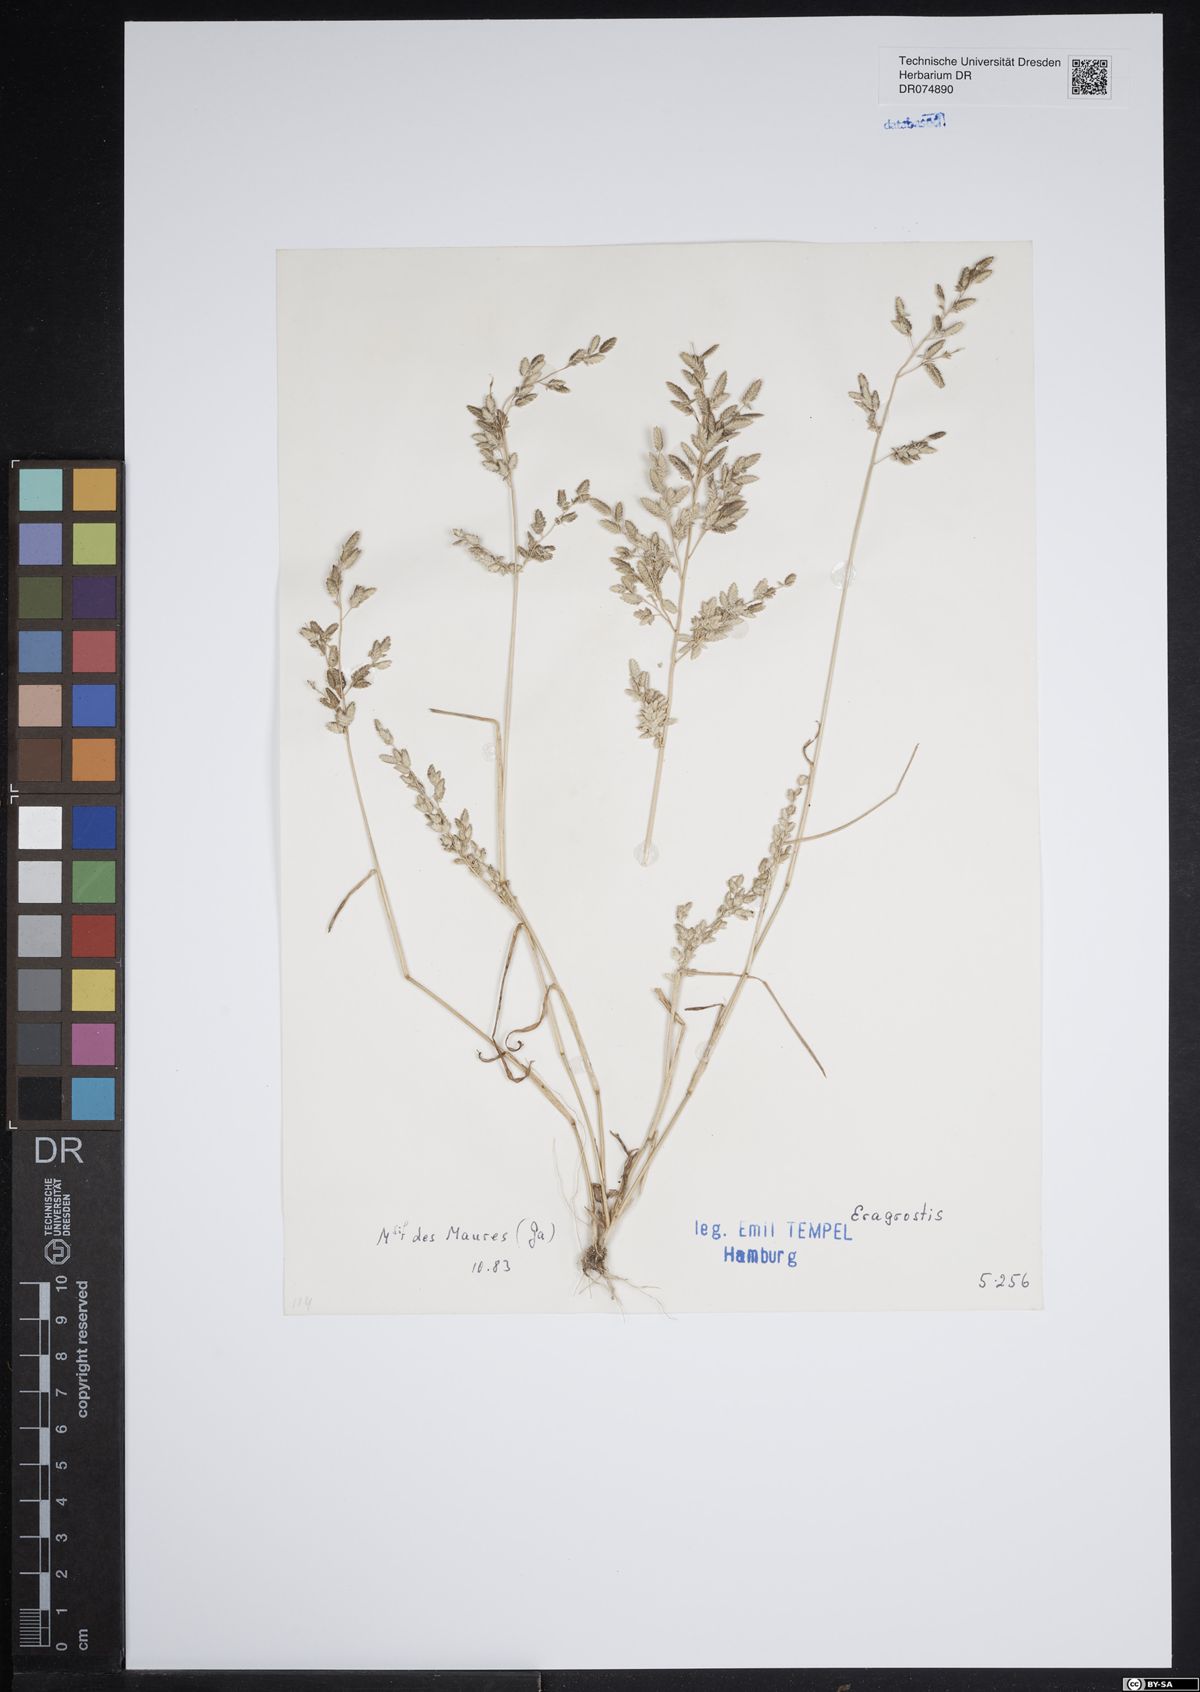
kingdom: Plantae
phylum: Tracheophyta
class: Liliopsida
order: Poales
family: Poaceae
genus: Eragrostis
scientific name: Eragrostis
